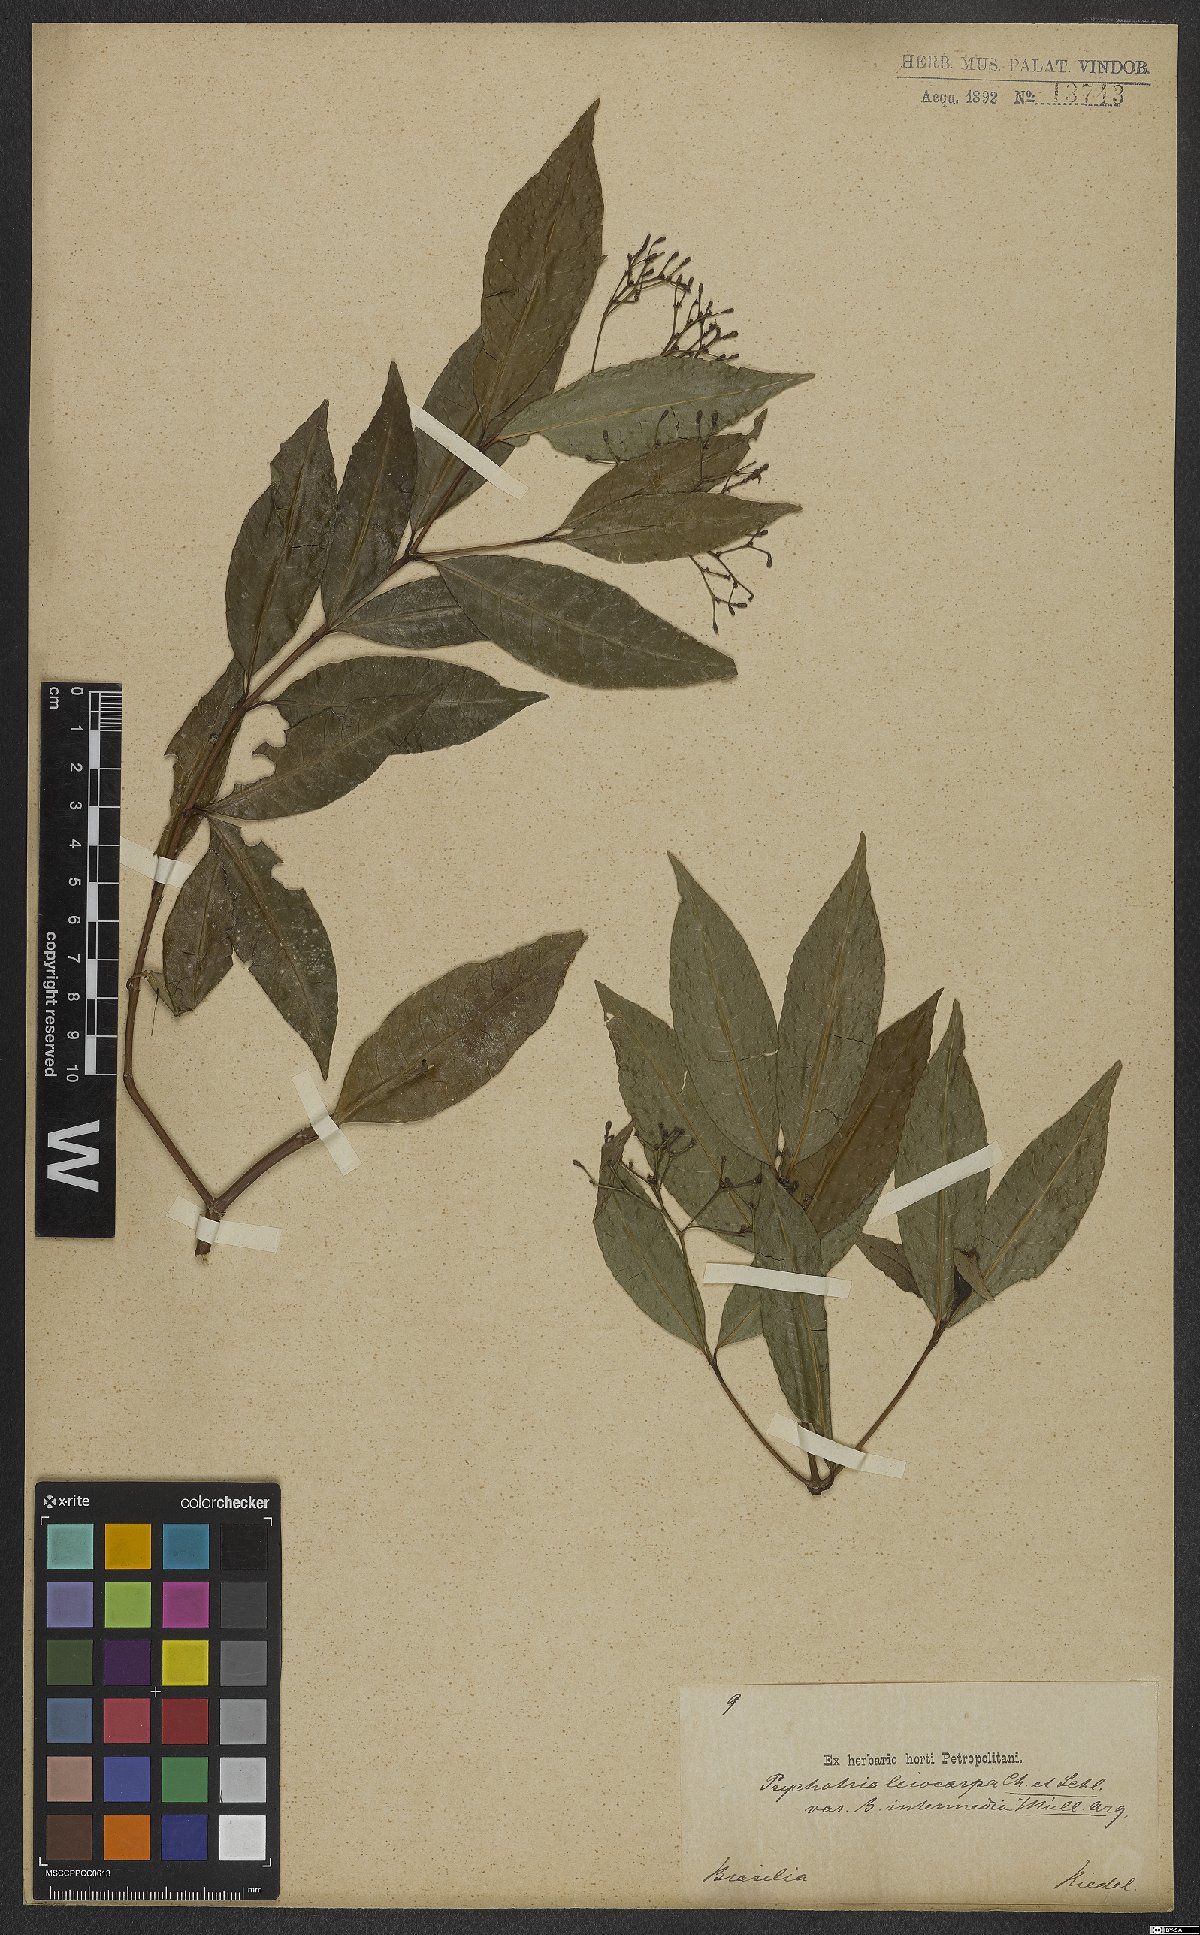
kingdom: Plantae
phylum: Tracheophyta
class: Magnoliopsida
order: Gentianales
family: Rubiaceae
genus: Psychotria
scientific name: Psychotria leiocarpa
